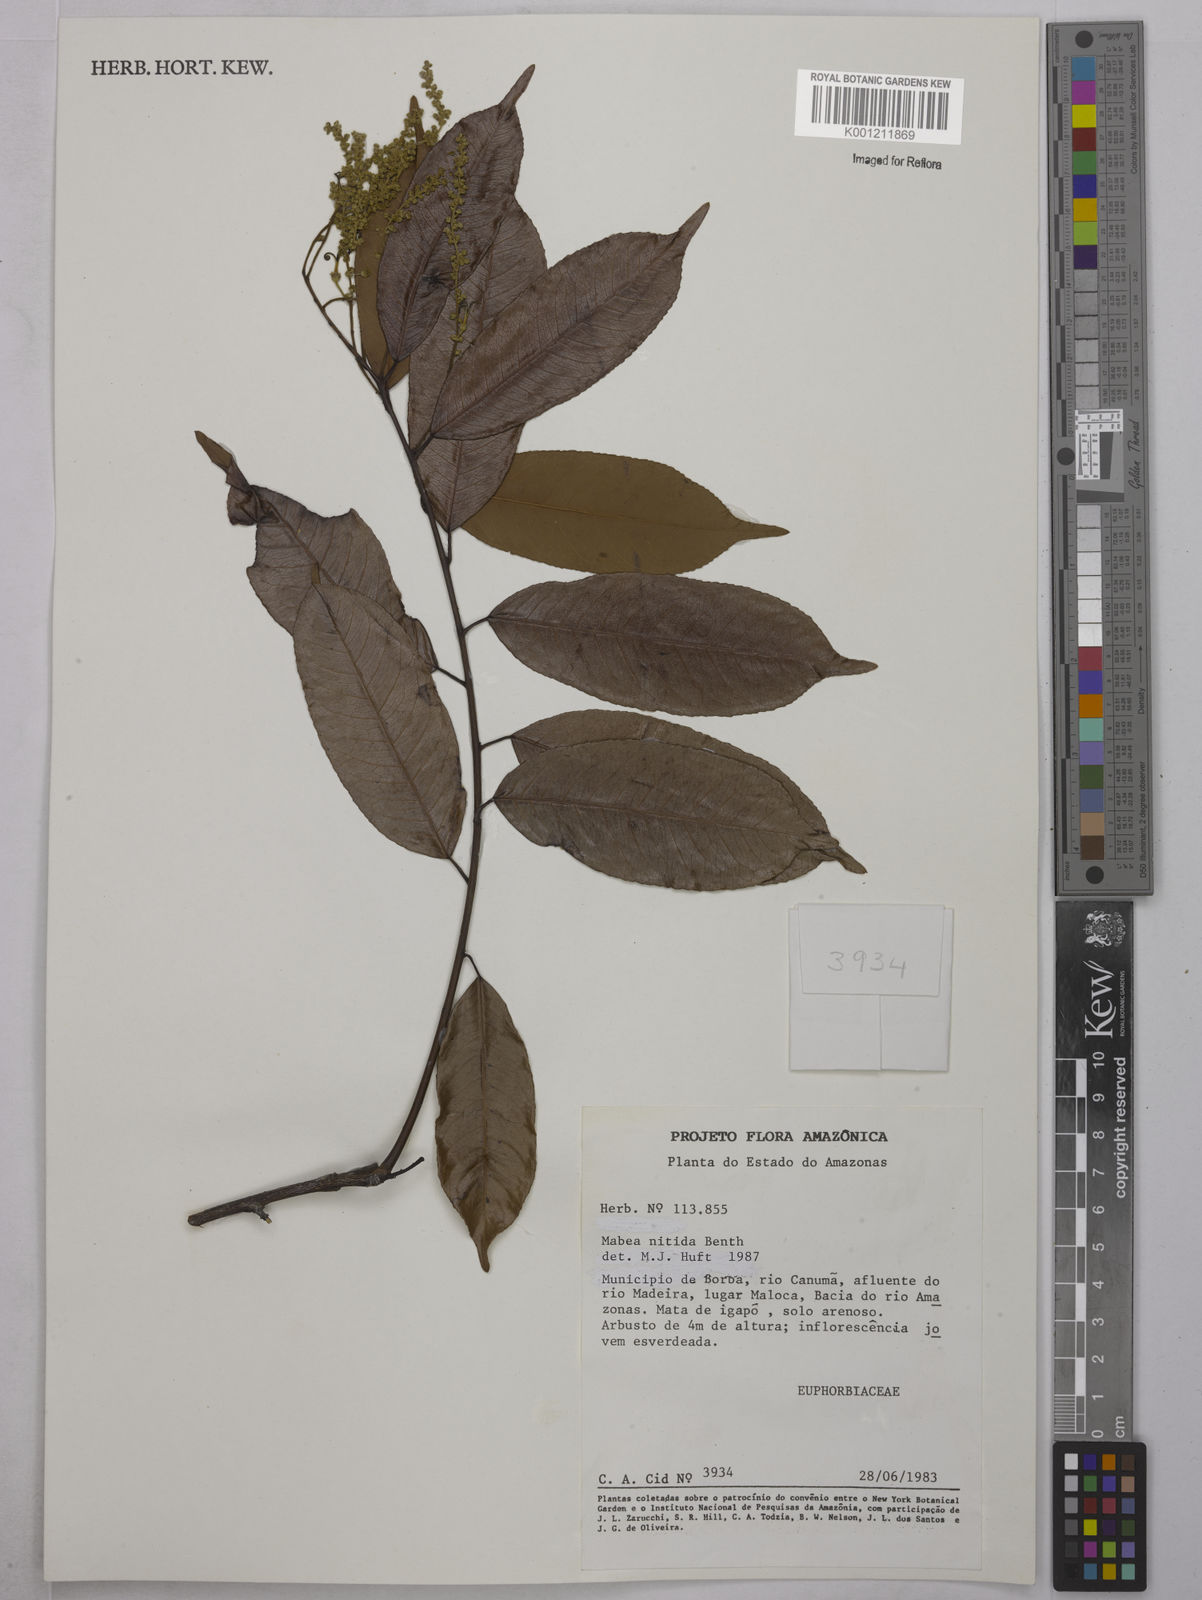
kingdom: Plantae
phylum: Tracheophyta
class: Magnoliopsida
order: Malpighiales
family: Euphorbiaceae
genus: Mabea
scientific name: Mabea nitida
